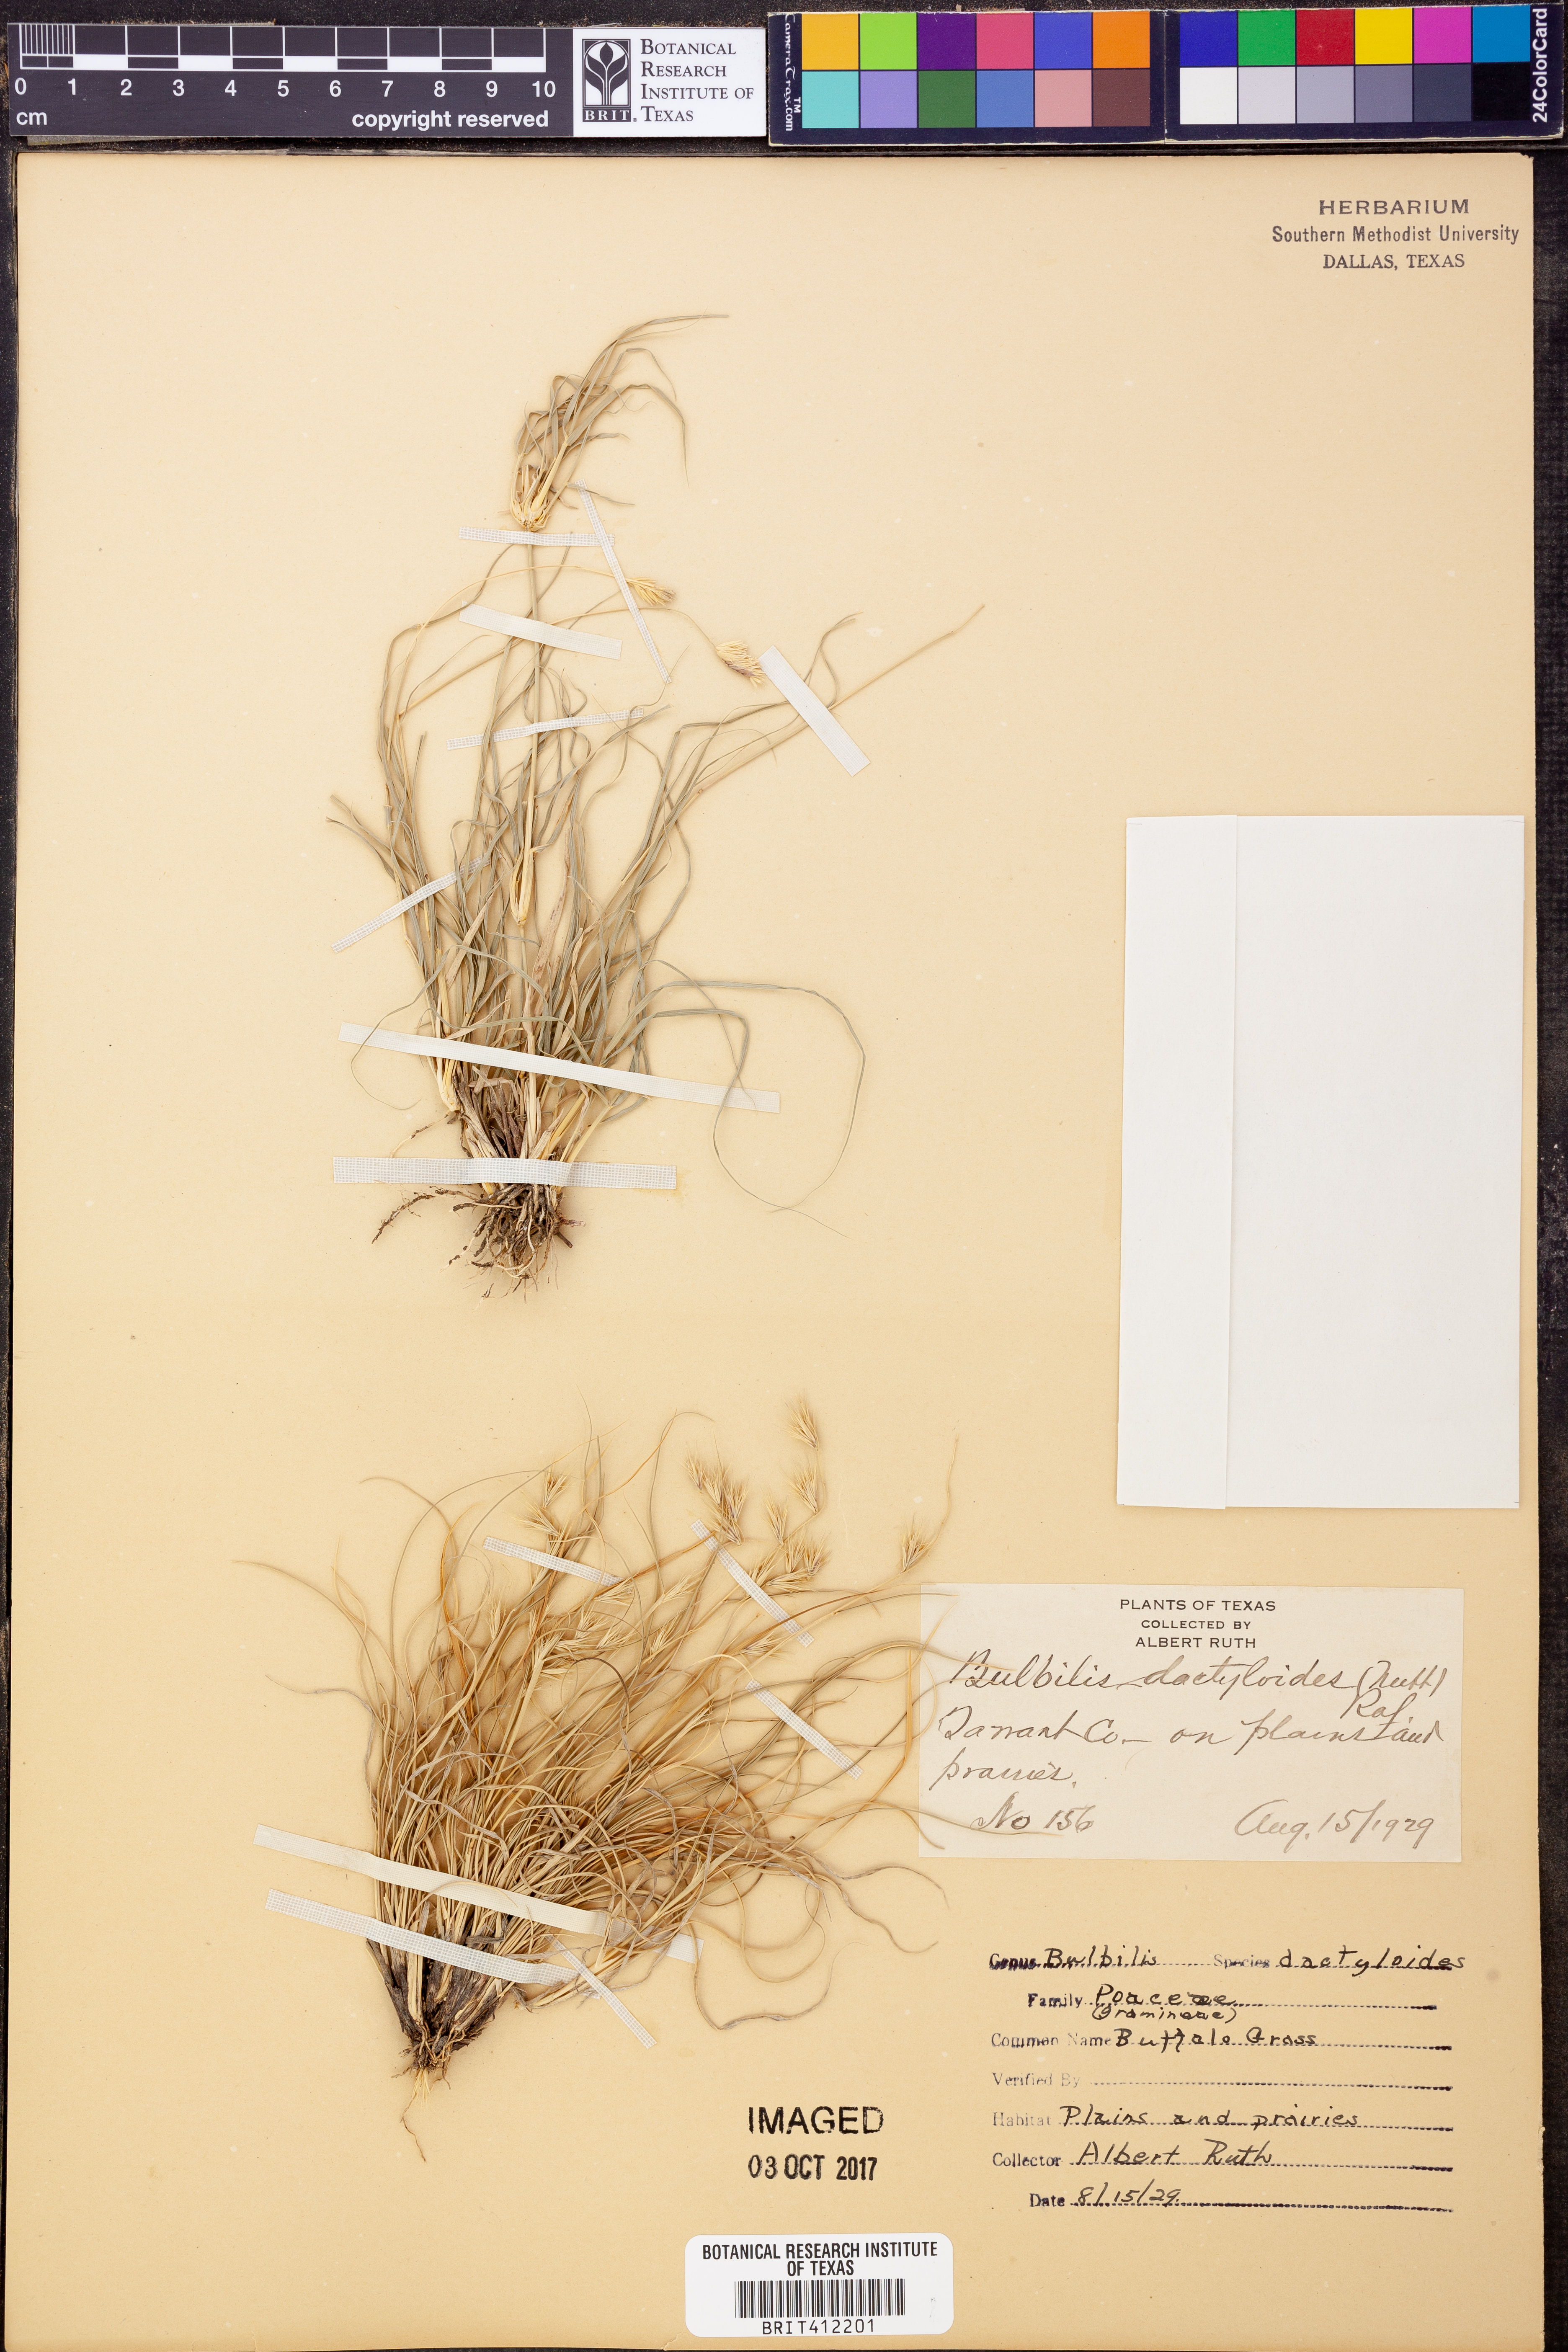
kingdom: Plantae
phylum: Tracheophyta
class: Liliopsida
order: Poales
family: Poaceae
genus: Bouteloua
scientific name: Bouteloua dactyloides
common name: Buffalo grass
